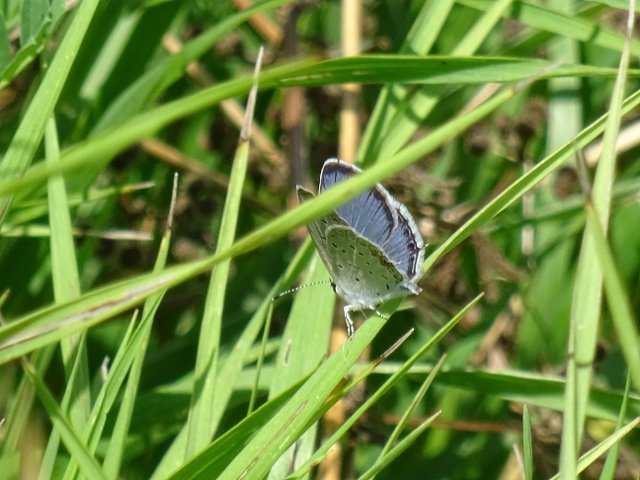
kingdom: Animalia
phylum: Arthropoda
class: Insecta
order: Lepidoptera
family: Lycaenidae
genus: Elkalyce
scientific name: Elkalyce comyntas
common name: Eastern Tailed-Blue
